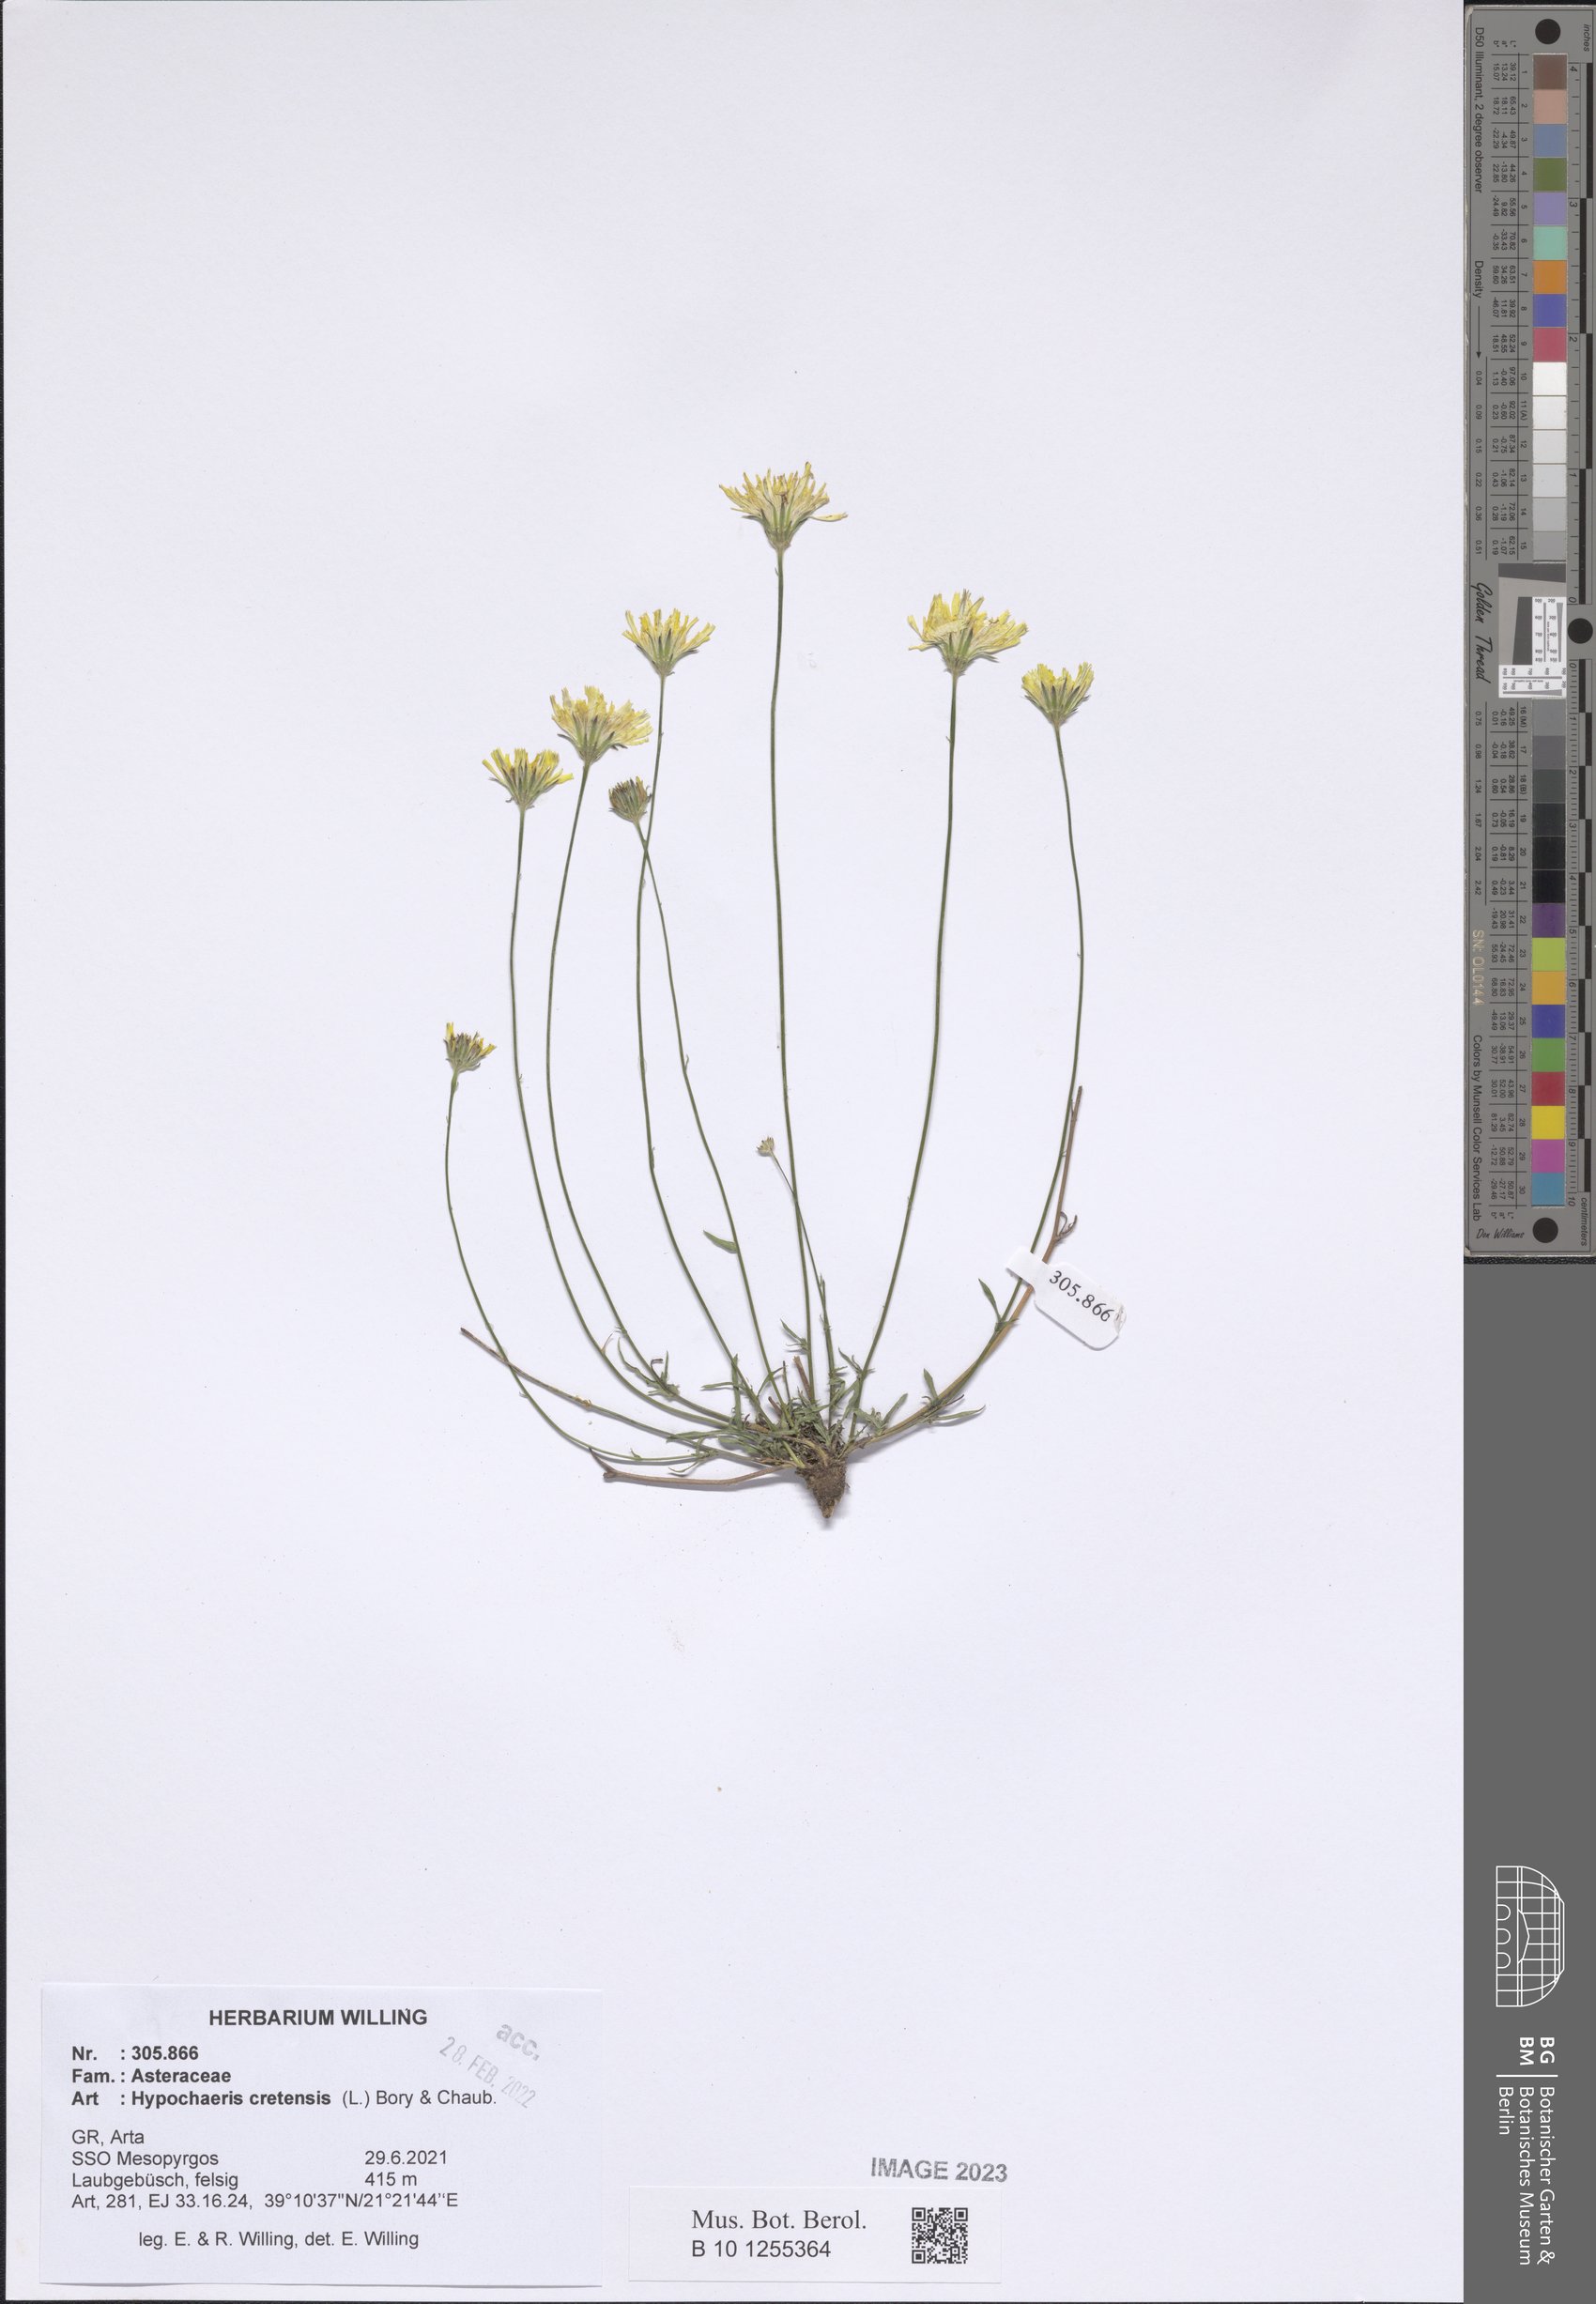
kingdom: Plantae
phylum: Tracheophyta
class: Magnoliopsida
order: Asterales
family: Asteraceae
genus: Hypochaeris
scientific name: Hypochaeris cretensis
